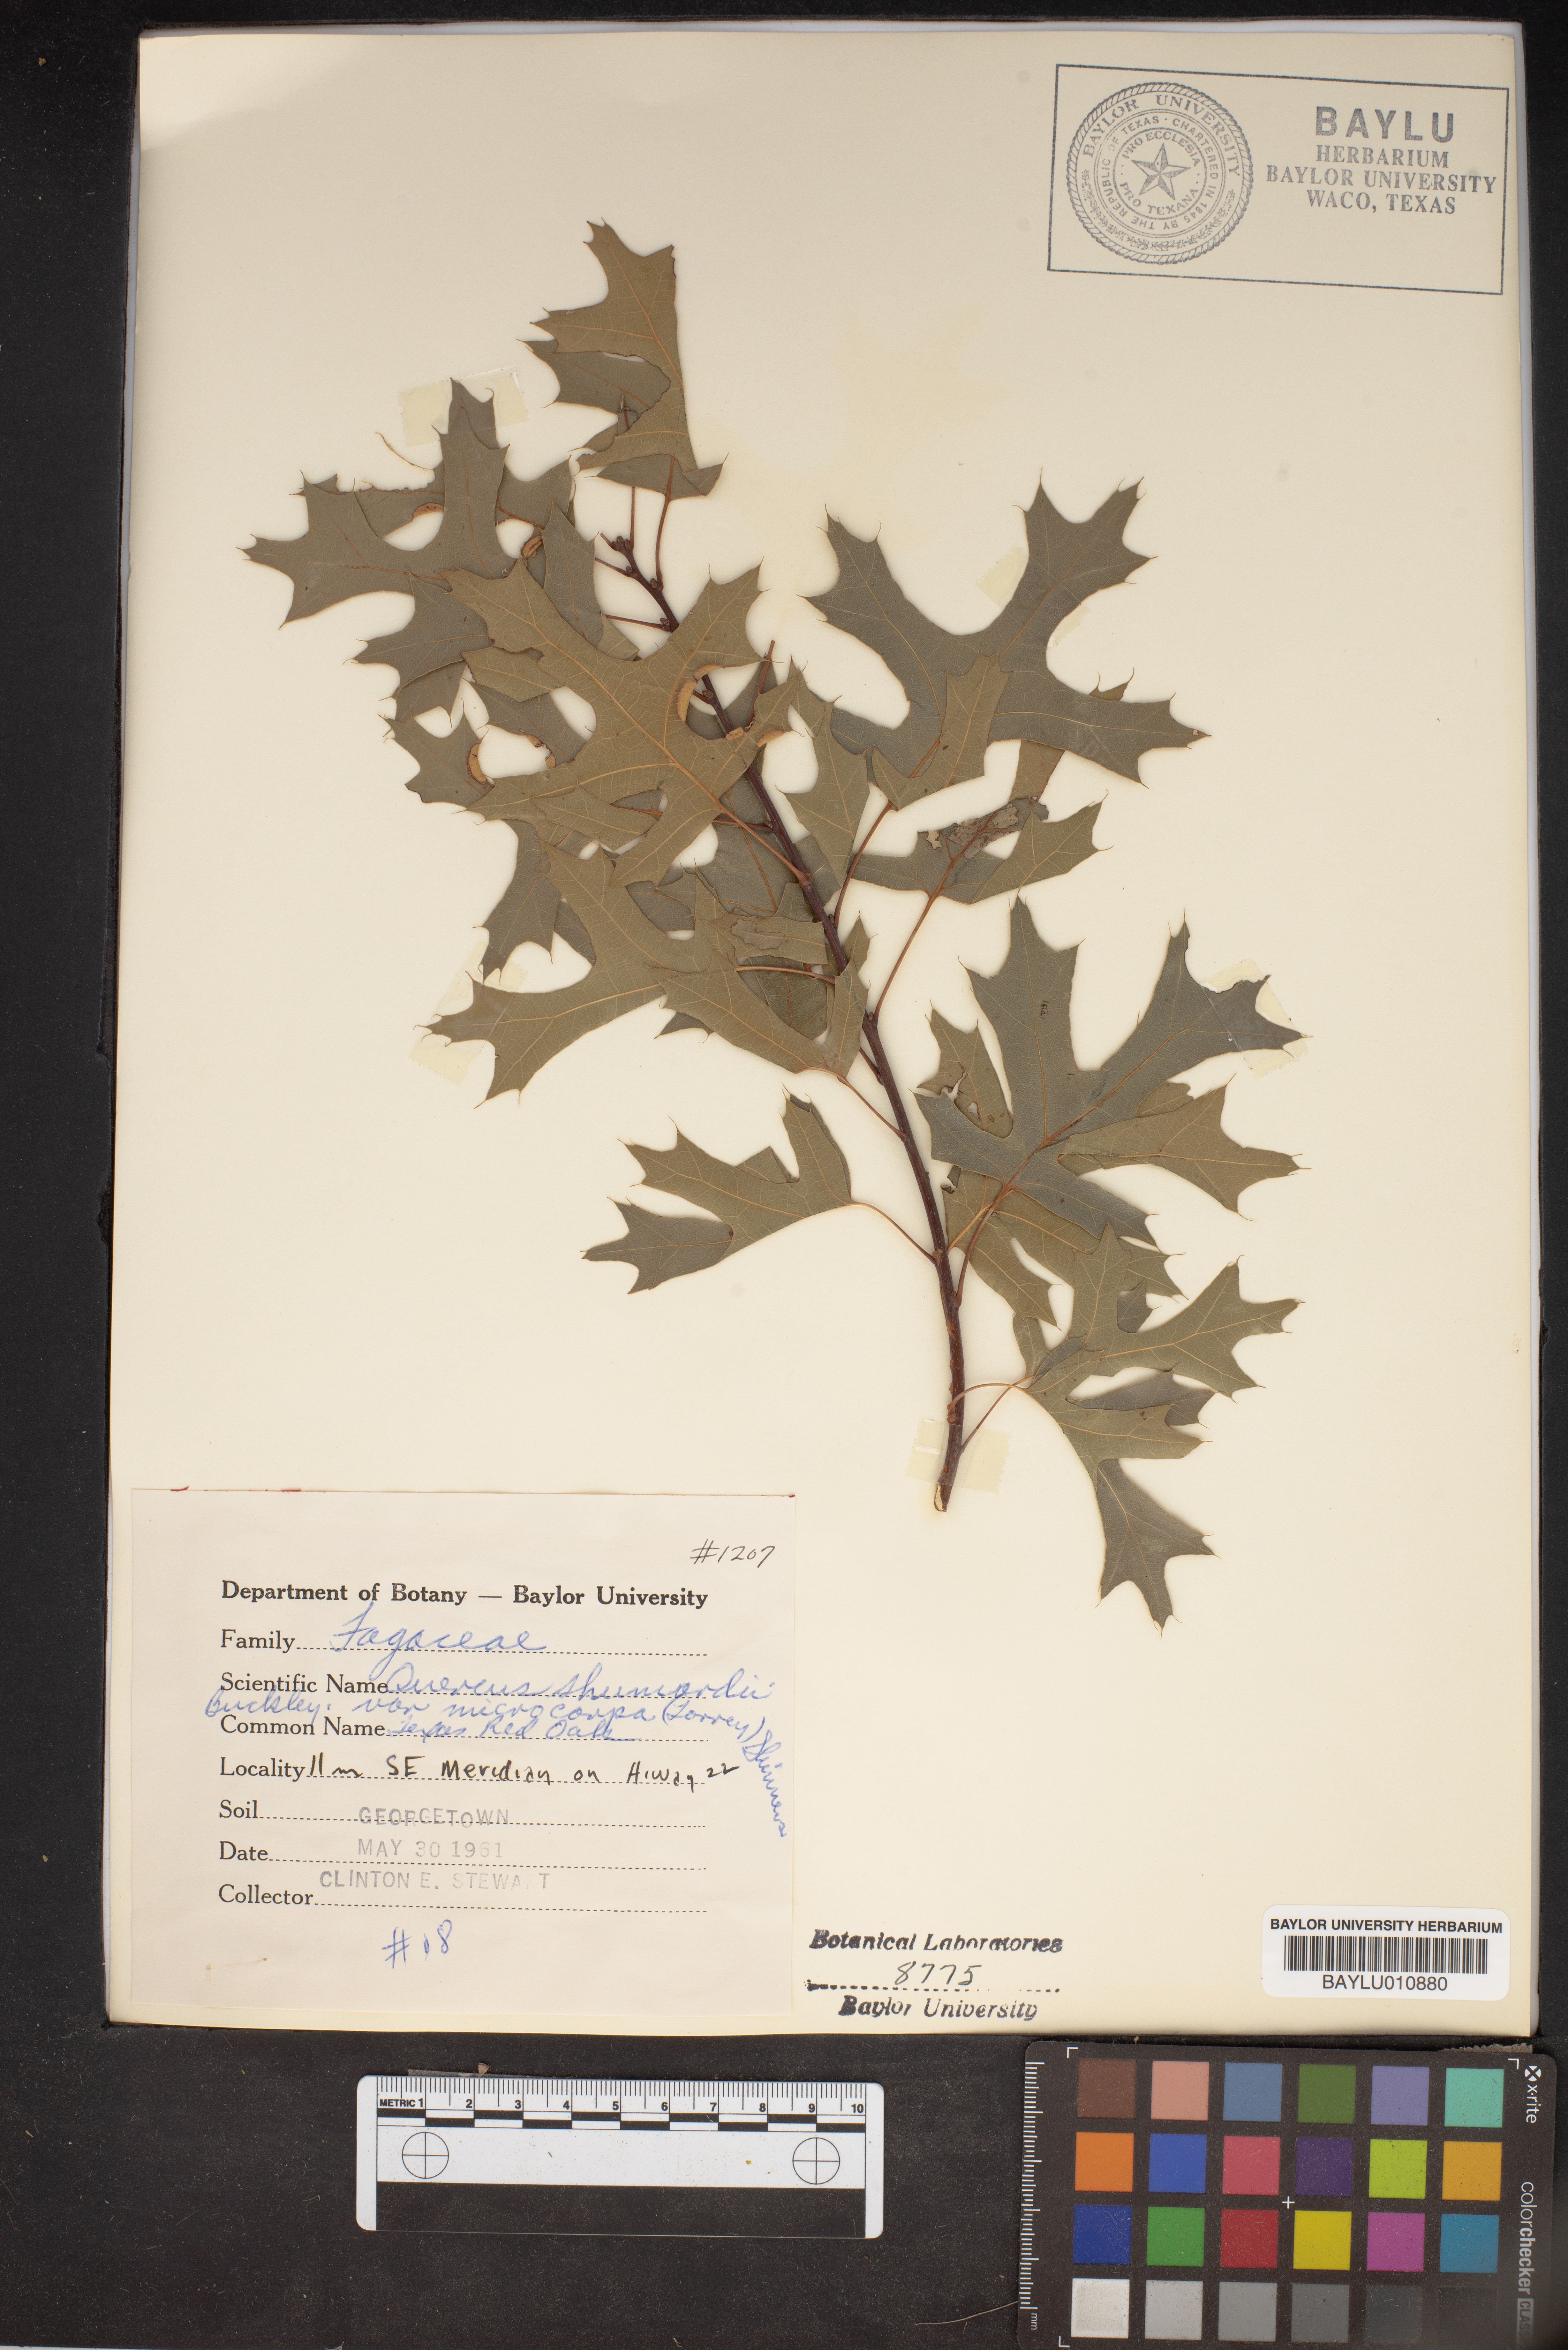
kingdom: Plantae
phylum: Tracheophyta
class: Magnoliopsida
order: Fagales
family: Fagaceae
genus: Quercus
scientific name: Quercus shumardii
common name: Shumard oak
